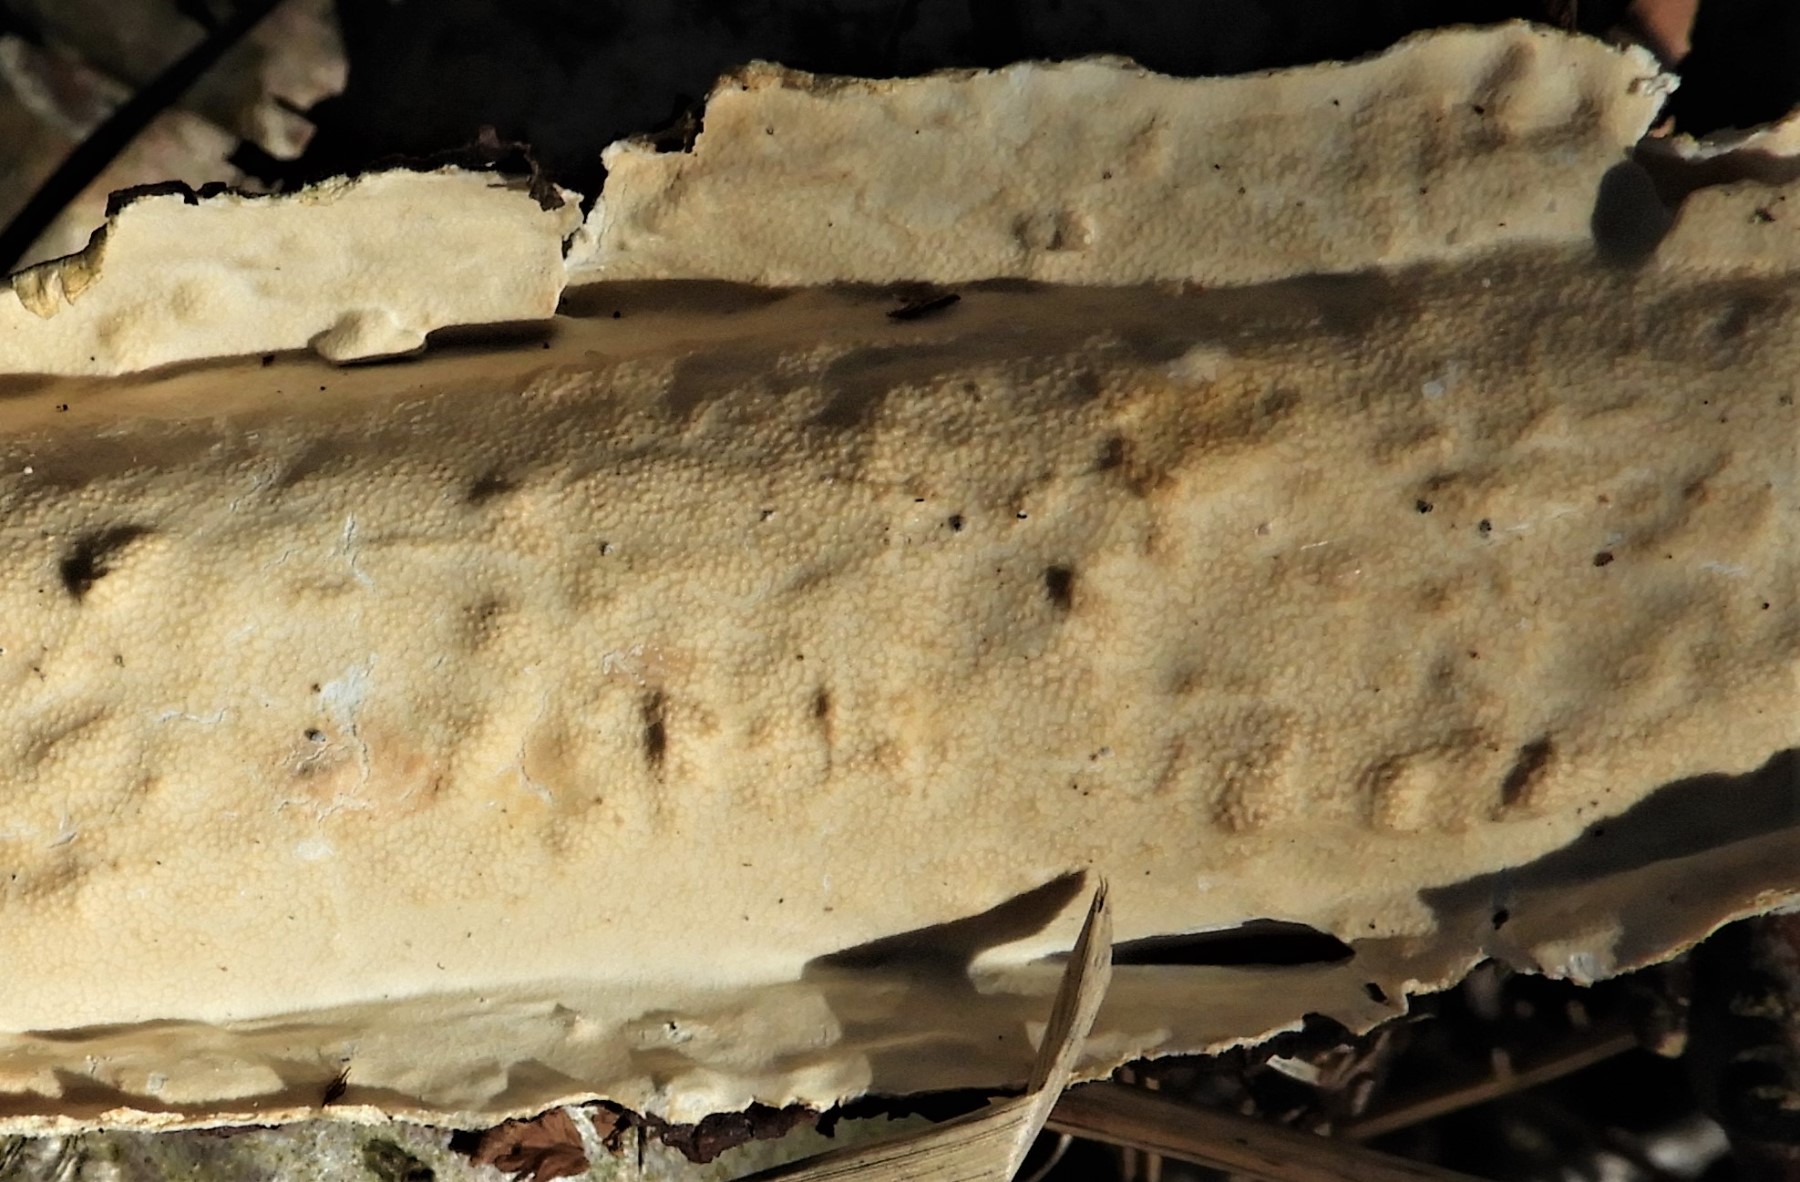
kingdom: Fungi
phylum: Basidiomycota
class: Agaricomycetes
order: Polyporales
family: Irpicaceae
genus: Byssomerulius
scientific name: Byssomerulius corium
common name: læder-åresvamp
